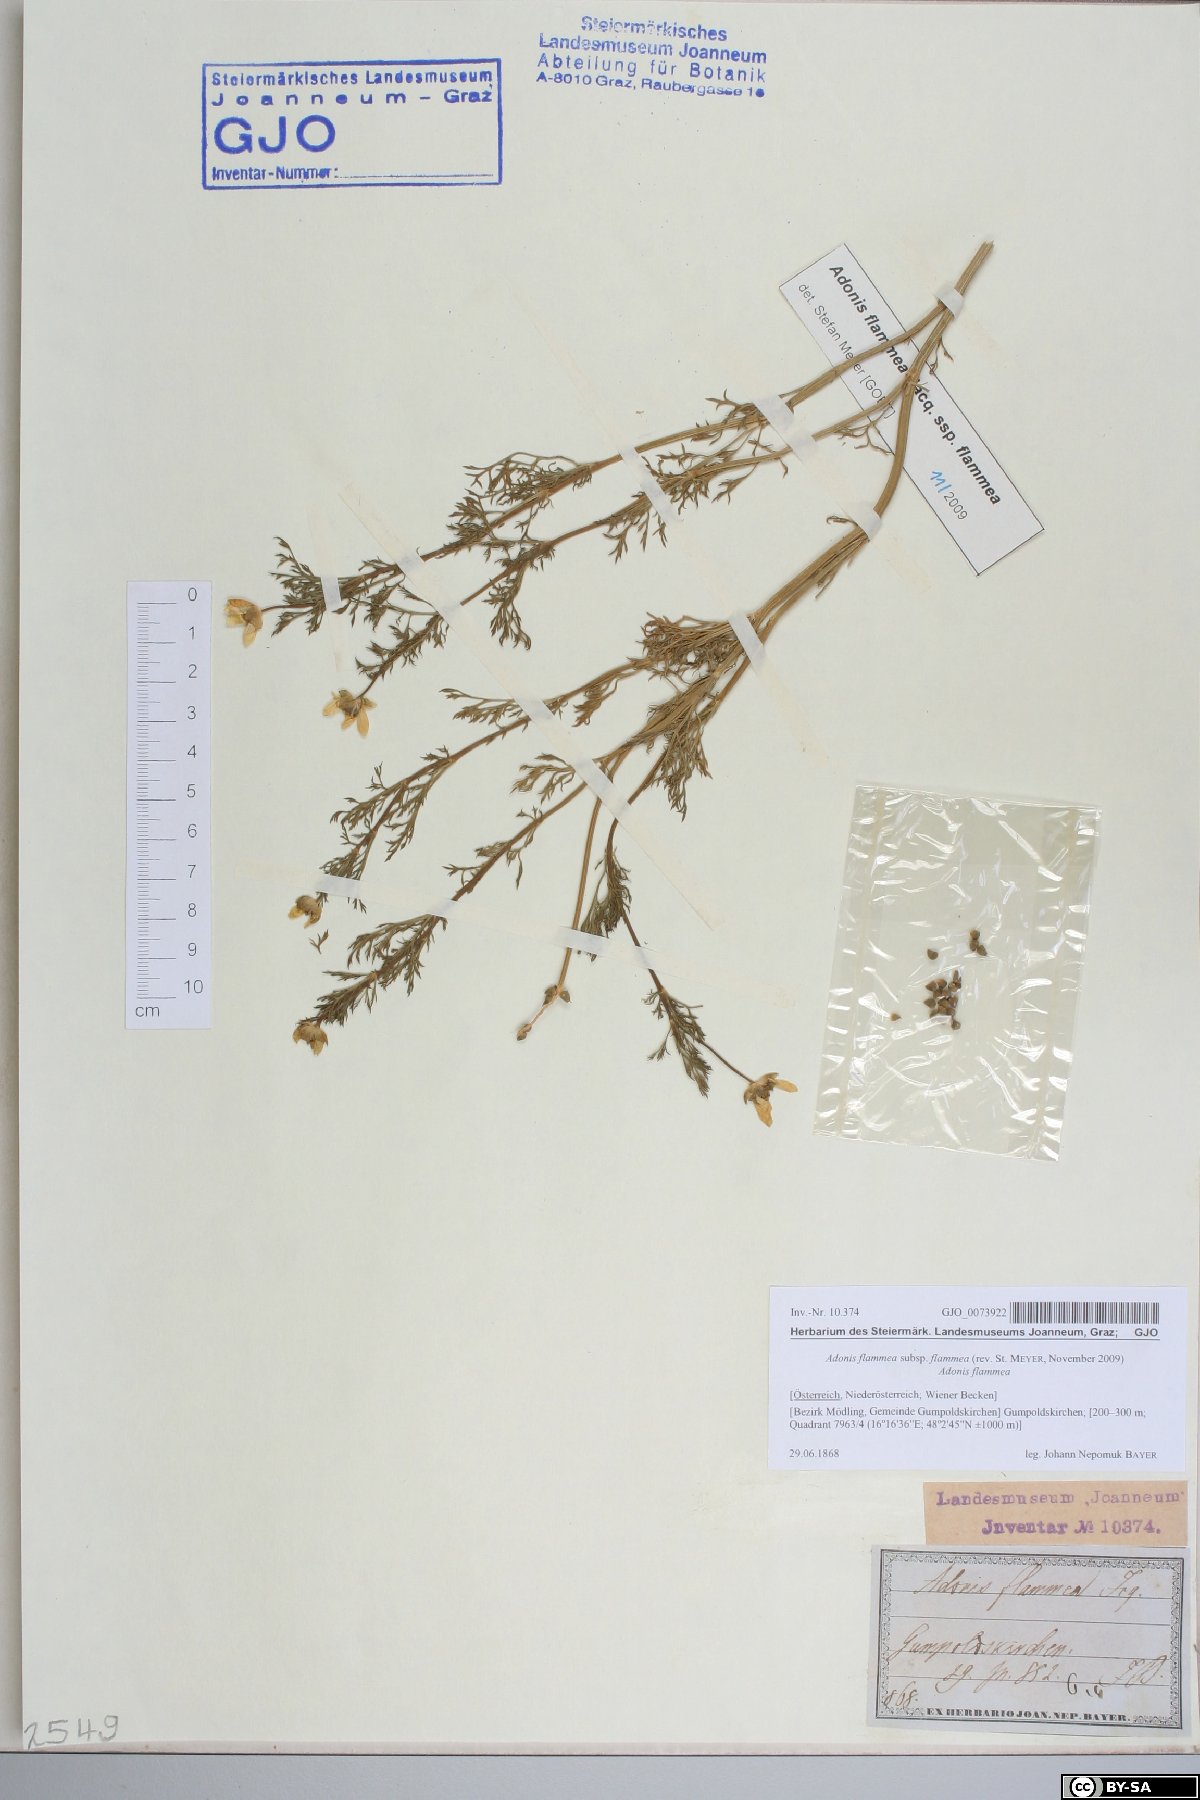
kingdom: Plantae
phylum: Tracheophyta
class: Magnoliopsida
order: Ranunculales
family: Ranunculaceae
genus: Adonis
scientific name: Adonis flammea
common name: Large pheasant's-eye
